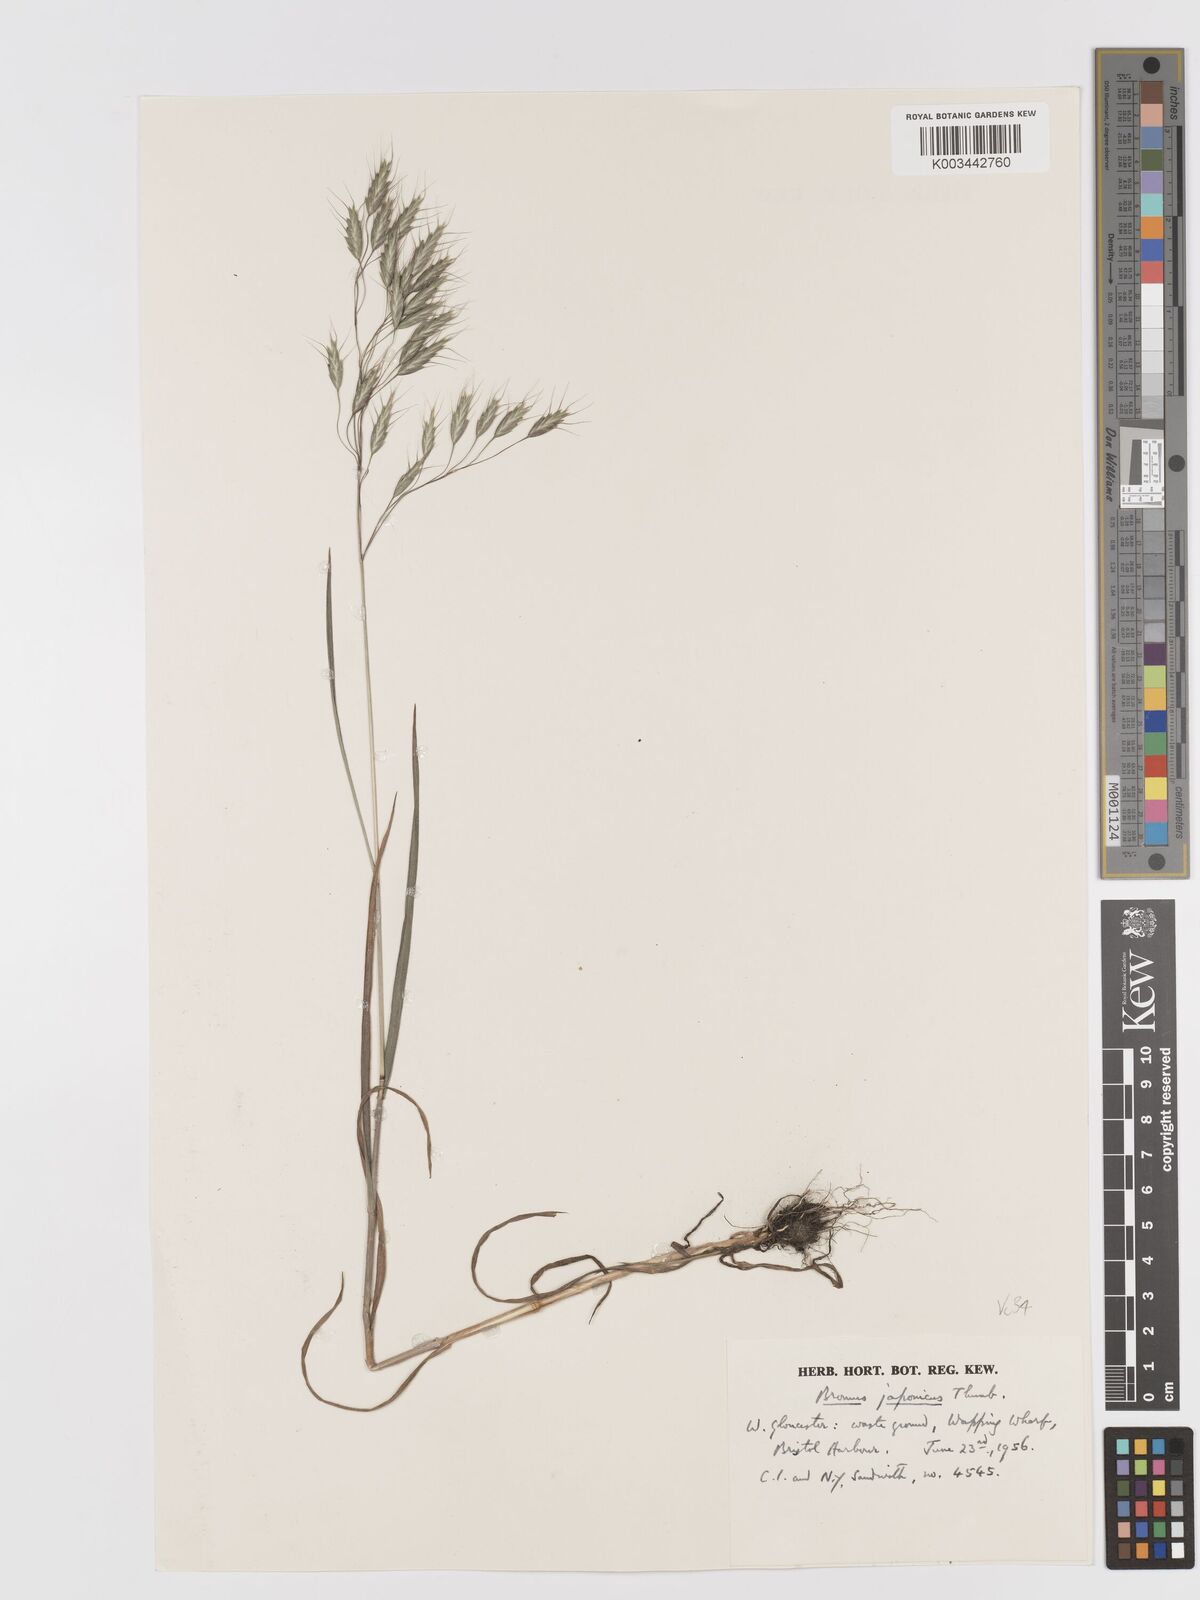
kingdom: Plantae
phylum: Tracheophyta
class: Liliopsida
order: Poales
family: Poaceae
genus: Bromus
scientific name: Bromus japonicus
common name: Japanese brome
